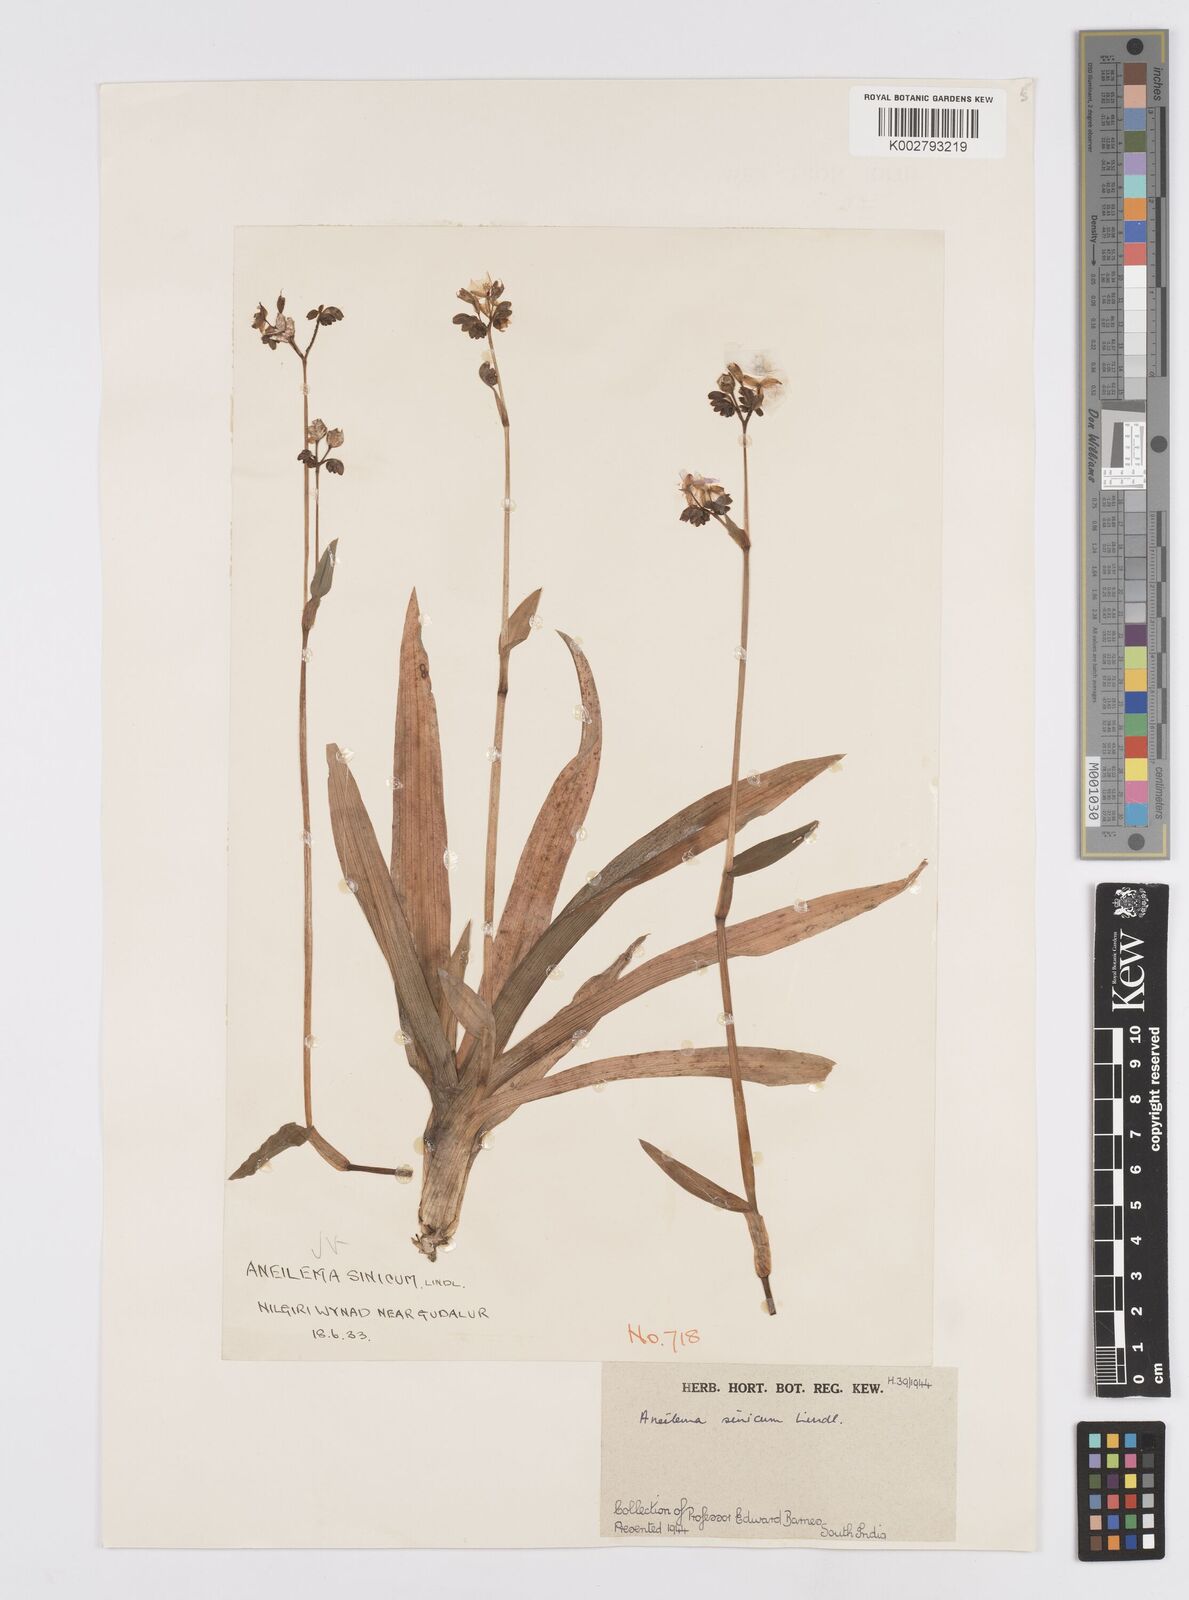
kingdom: Plantae
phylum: Tracheophyta
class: Liliopsida
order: Commelinales
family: Commelinaceae
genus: Murdannia
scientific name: Murdannia simplex
